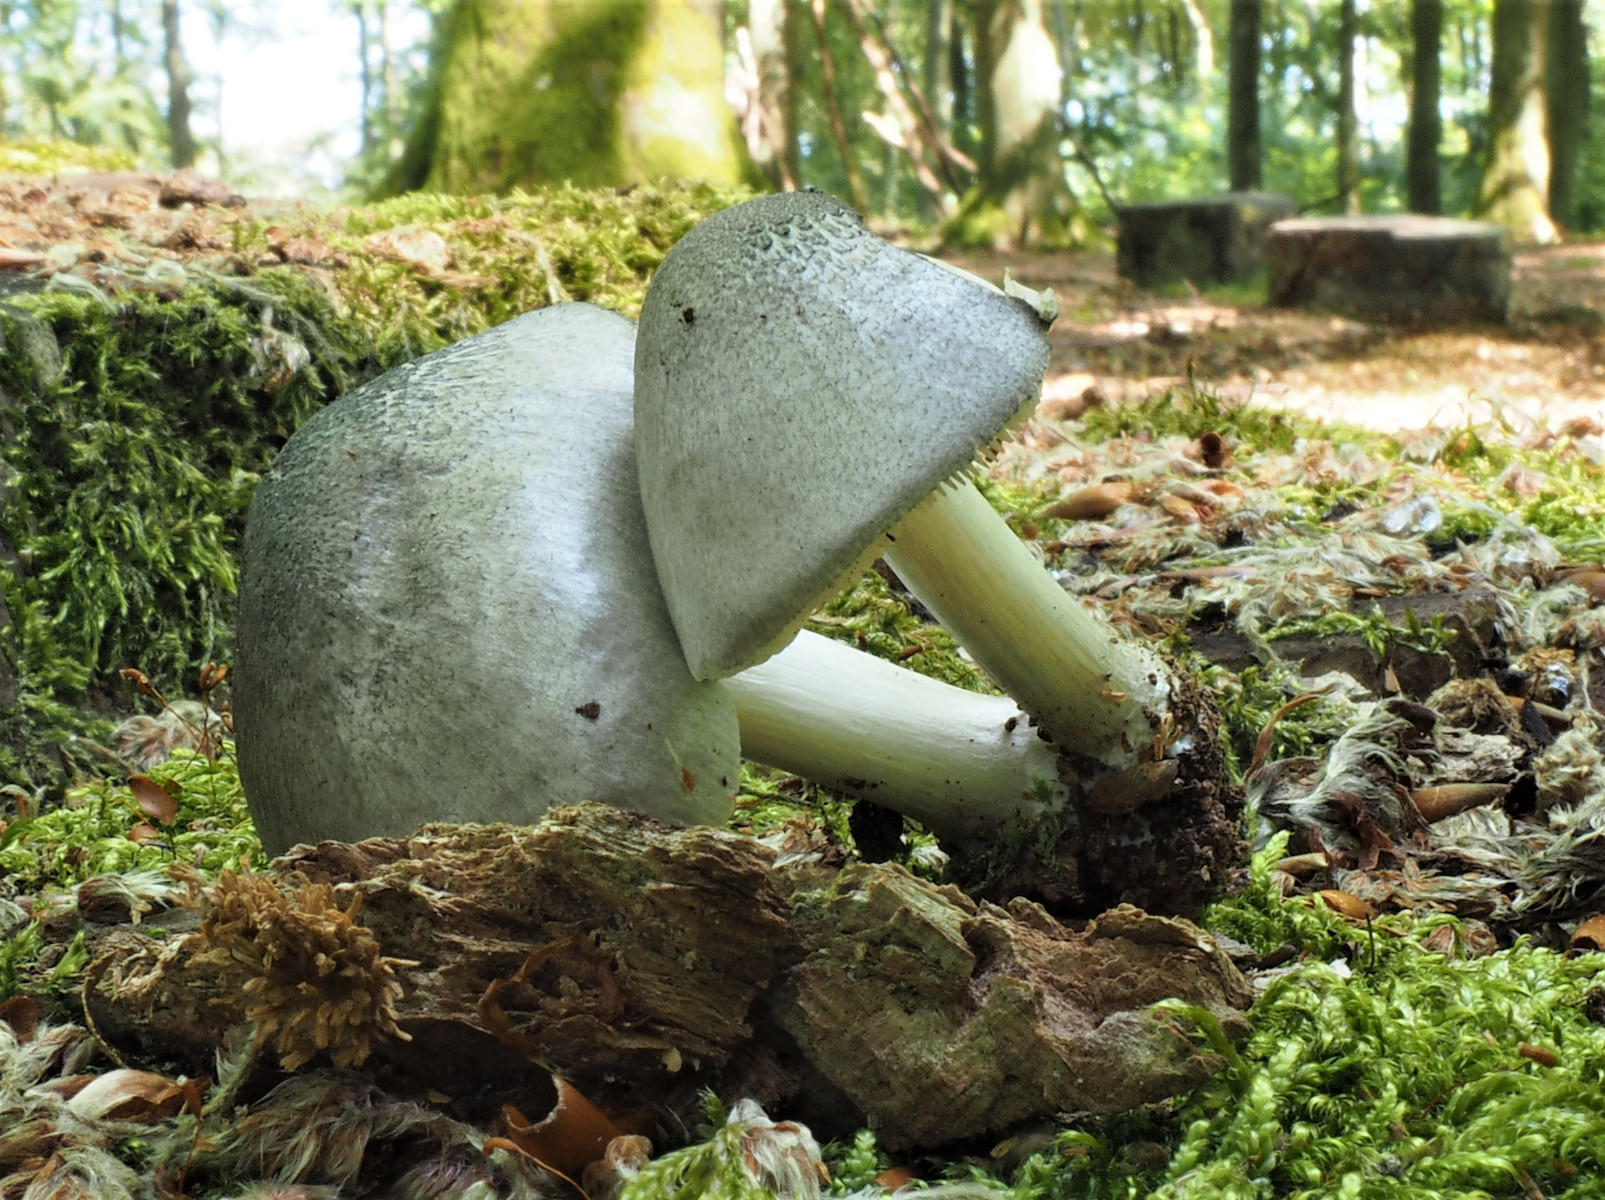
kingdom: Fungi
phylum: Basidiomycota
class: Agaricomycetes
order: Agaricales
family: Pluteaceae
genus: Pluteus
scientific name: Pluteus salicinus
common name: stiv skærmhat
